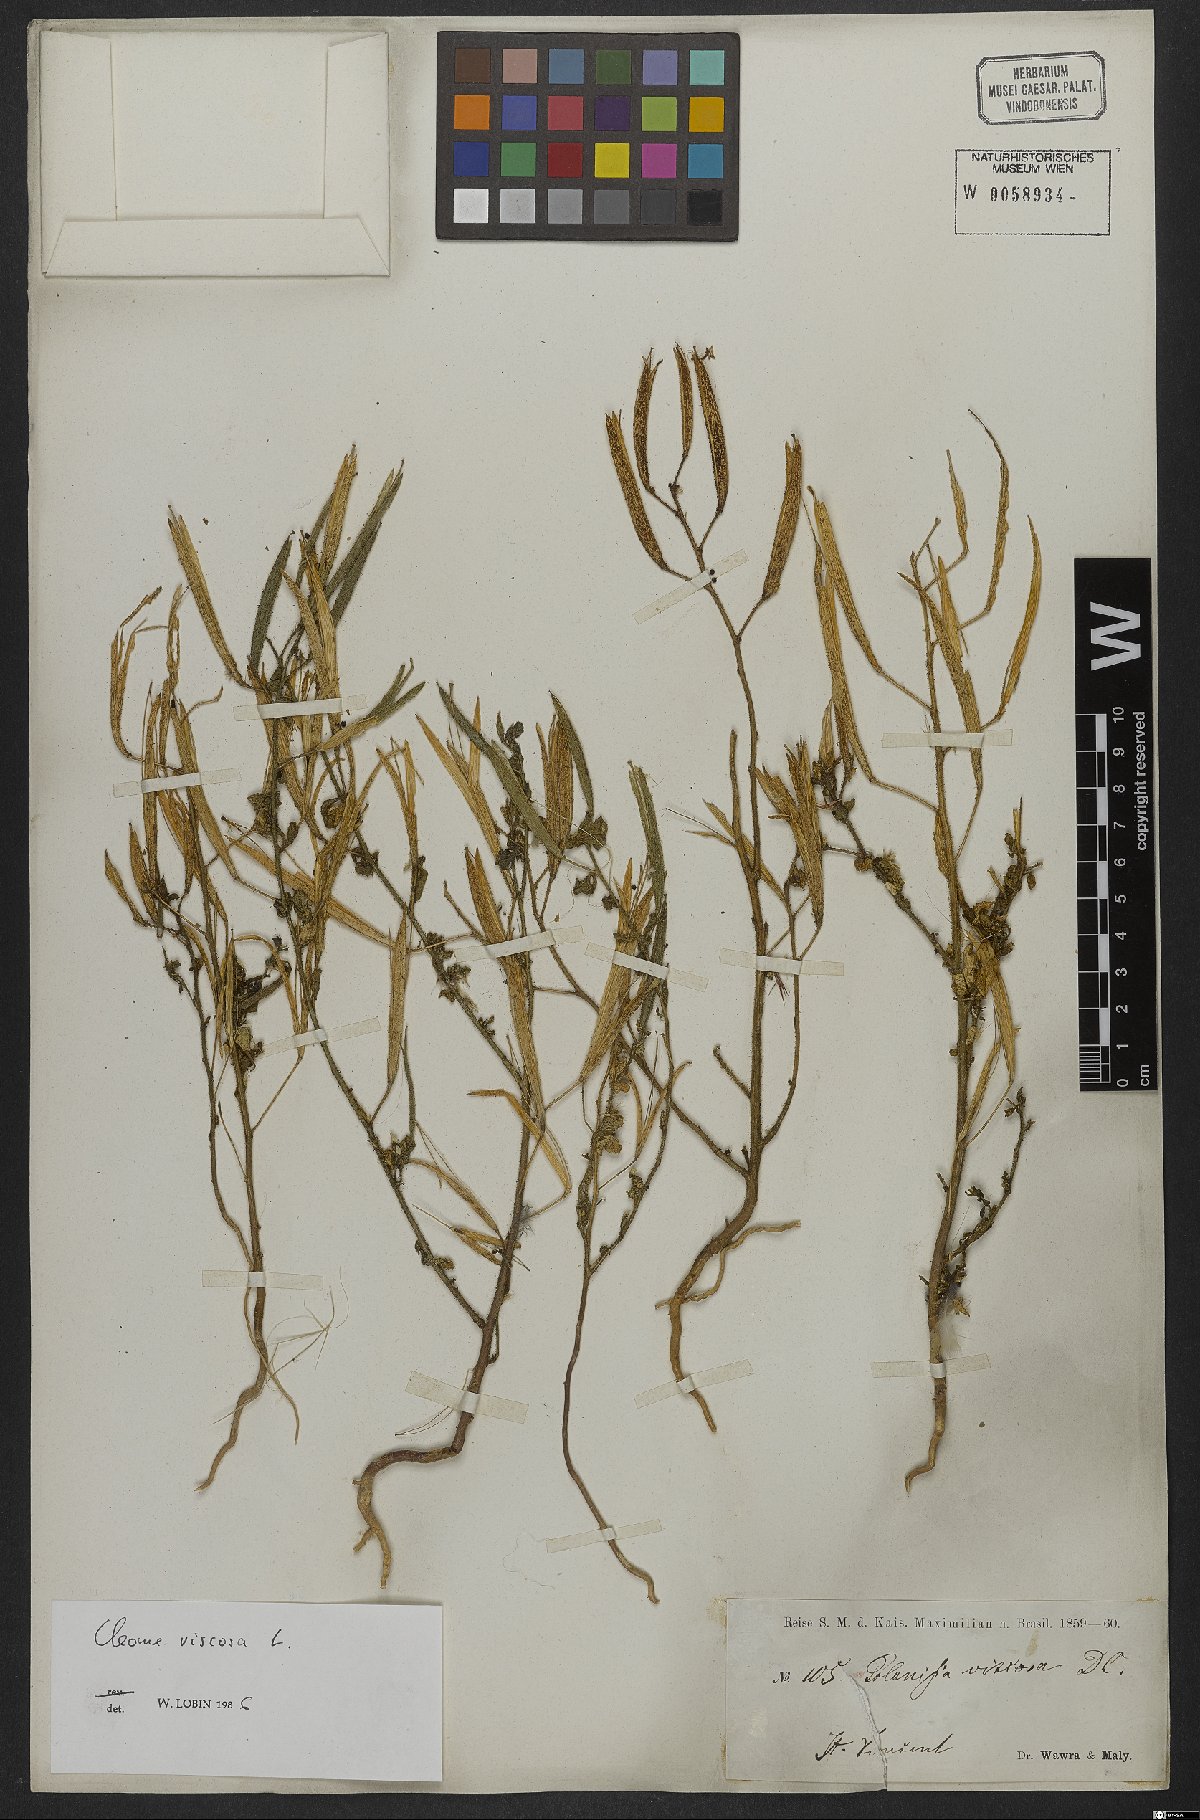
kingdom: Plantae
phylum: Tracheophyta
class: Magnoliopsida
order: Brassicales
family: Cleomaceae
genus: Arivela
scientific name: Arivela viscosa
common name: Asian spiderflower
